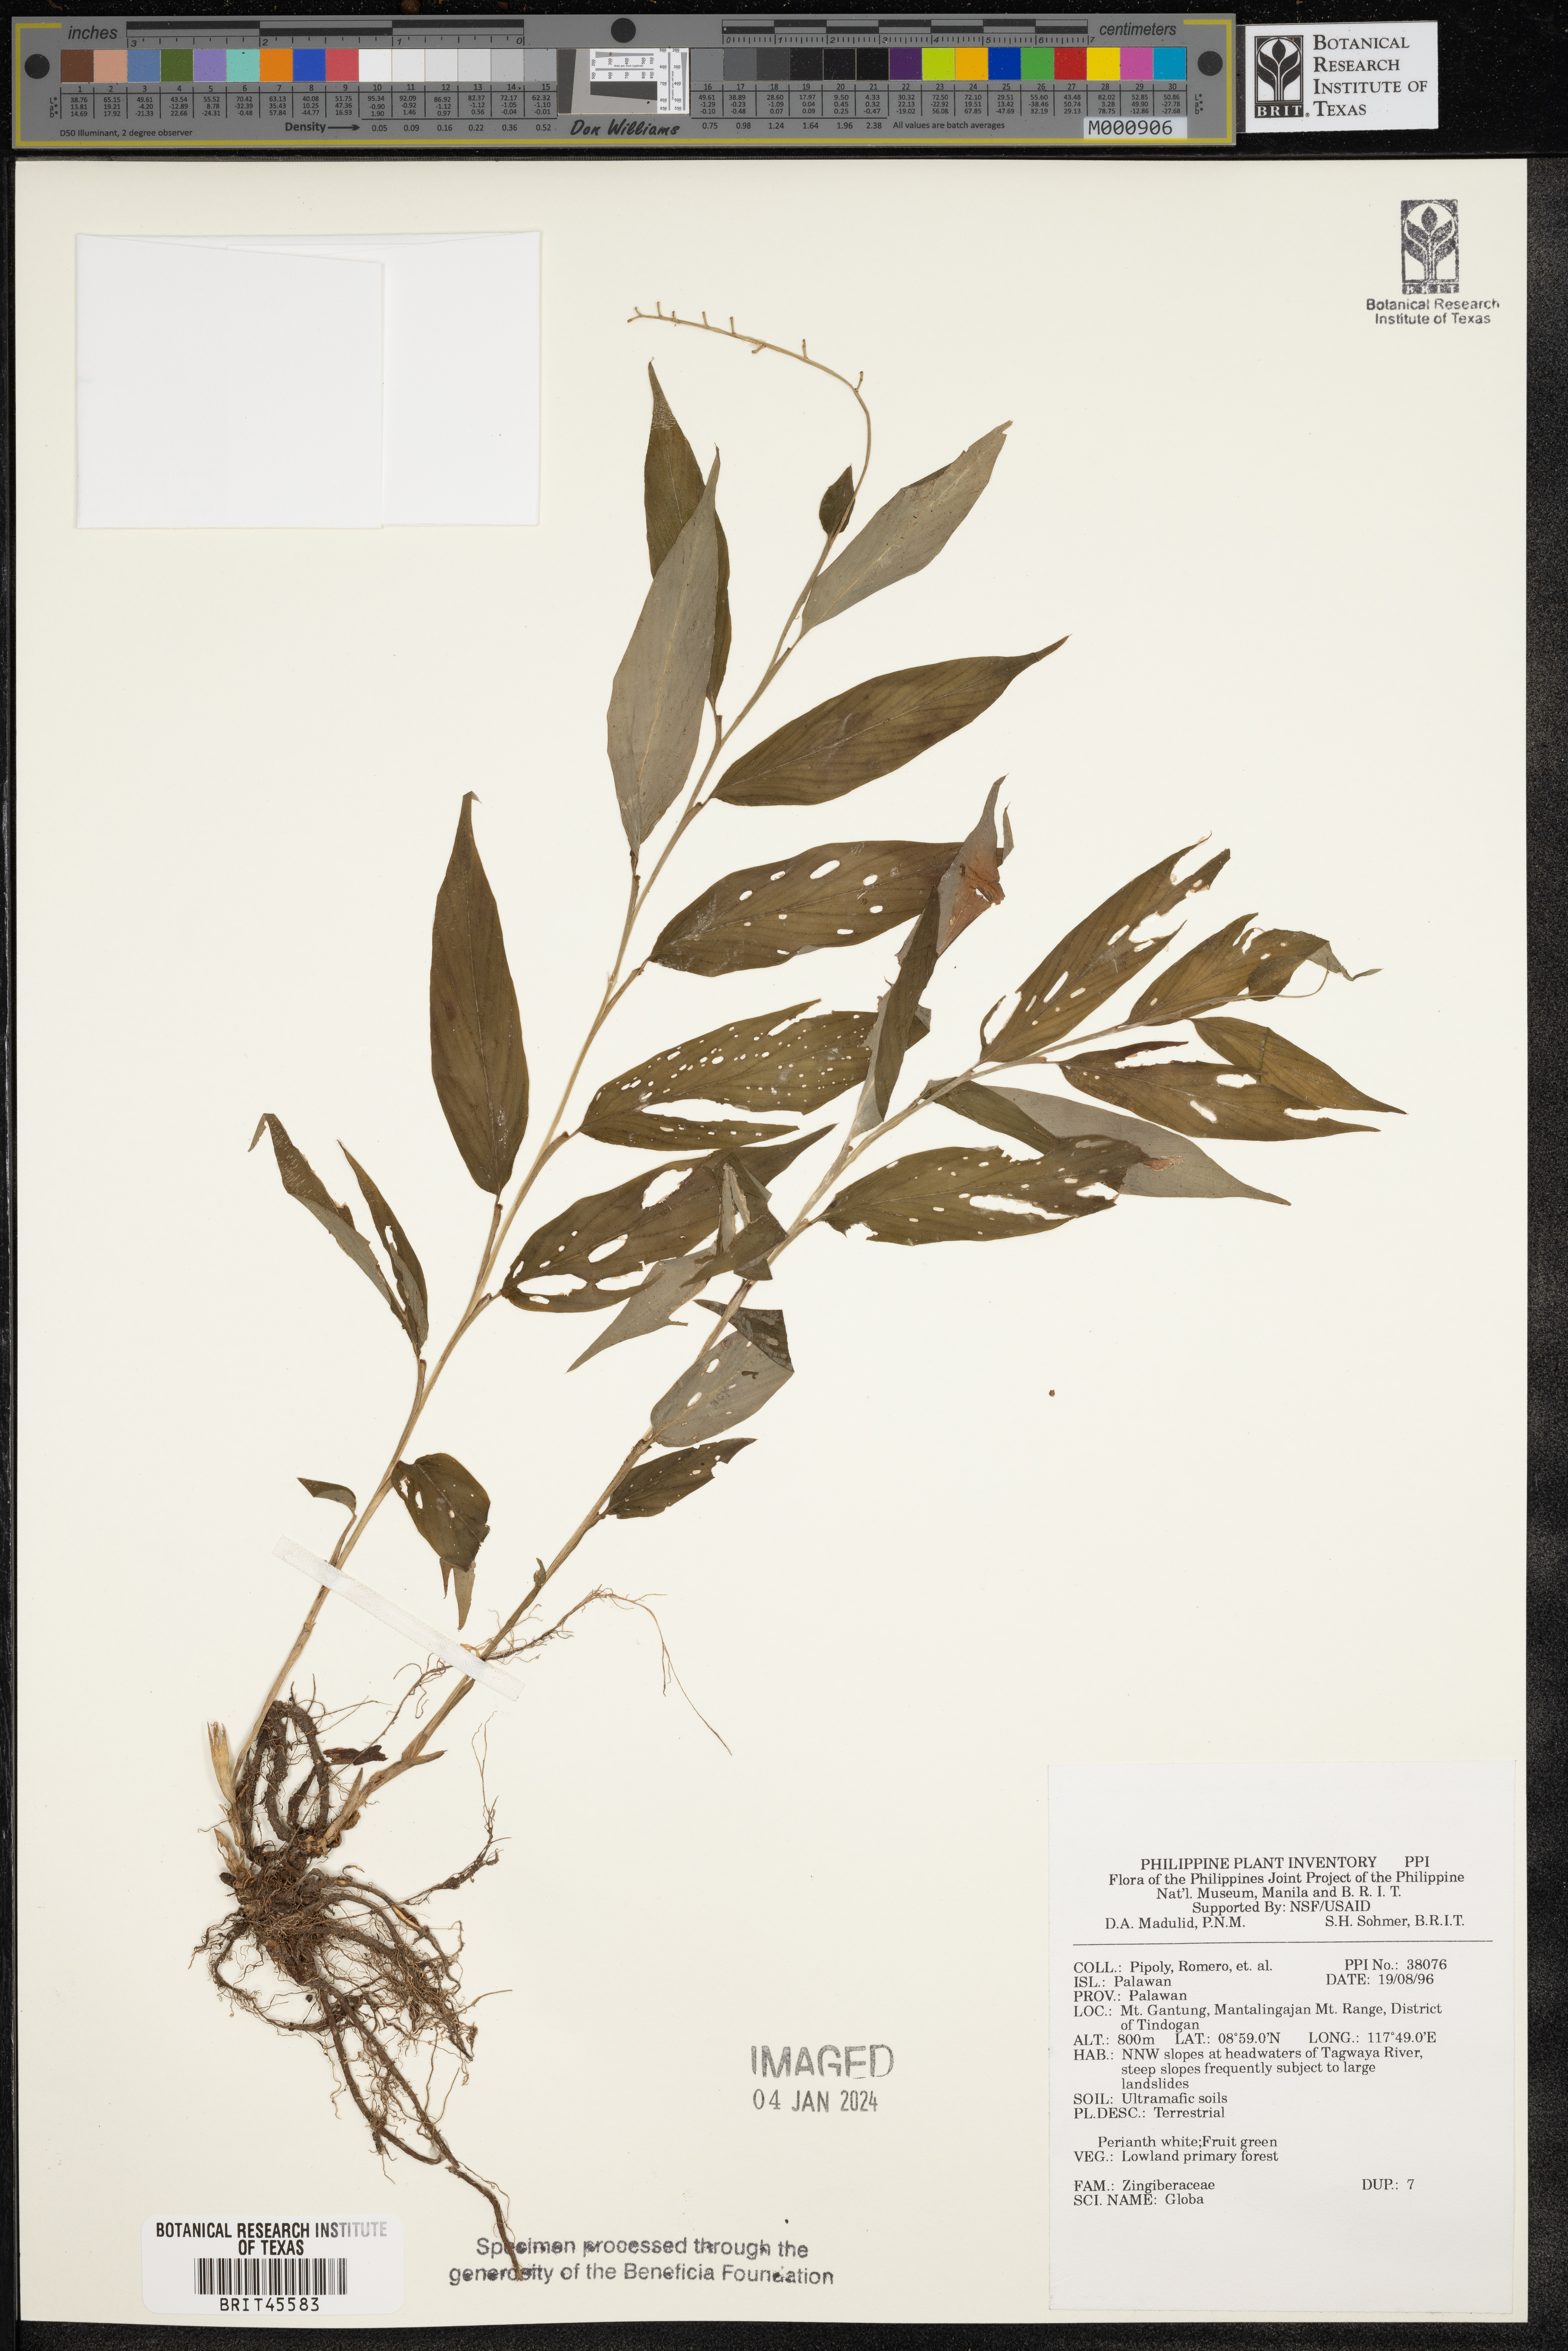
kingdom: Plantae
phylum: Tracheophyta
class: Liliopsida
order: Zingiberales
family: Zingiberaceae
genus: Globba
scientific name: Globba
